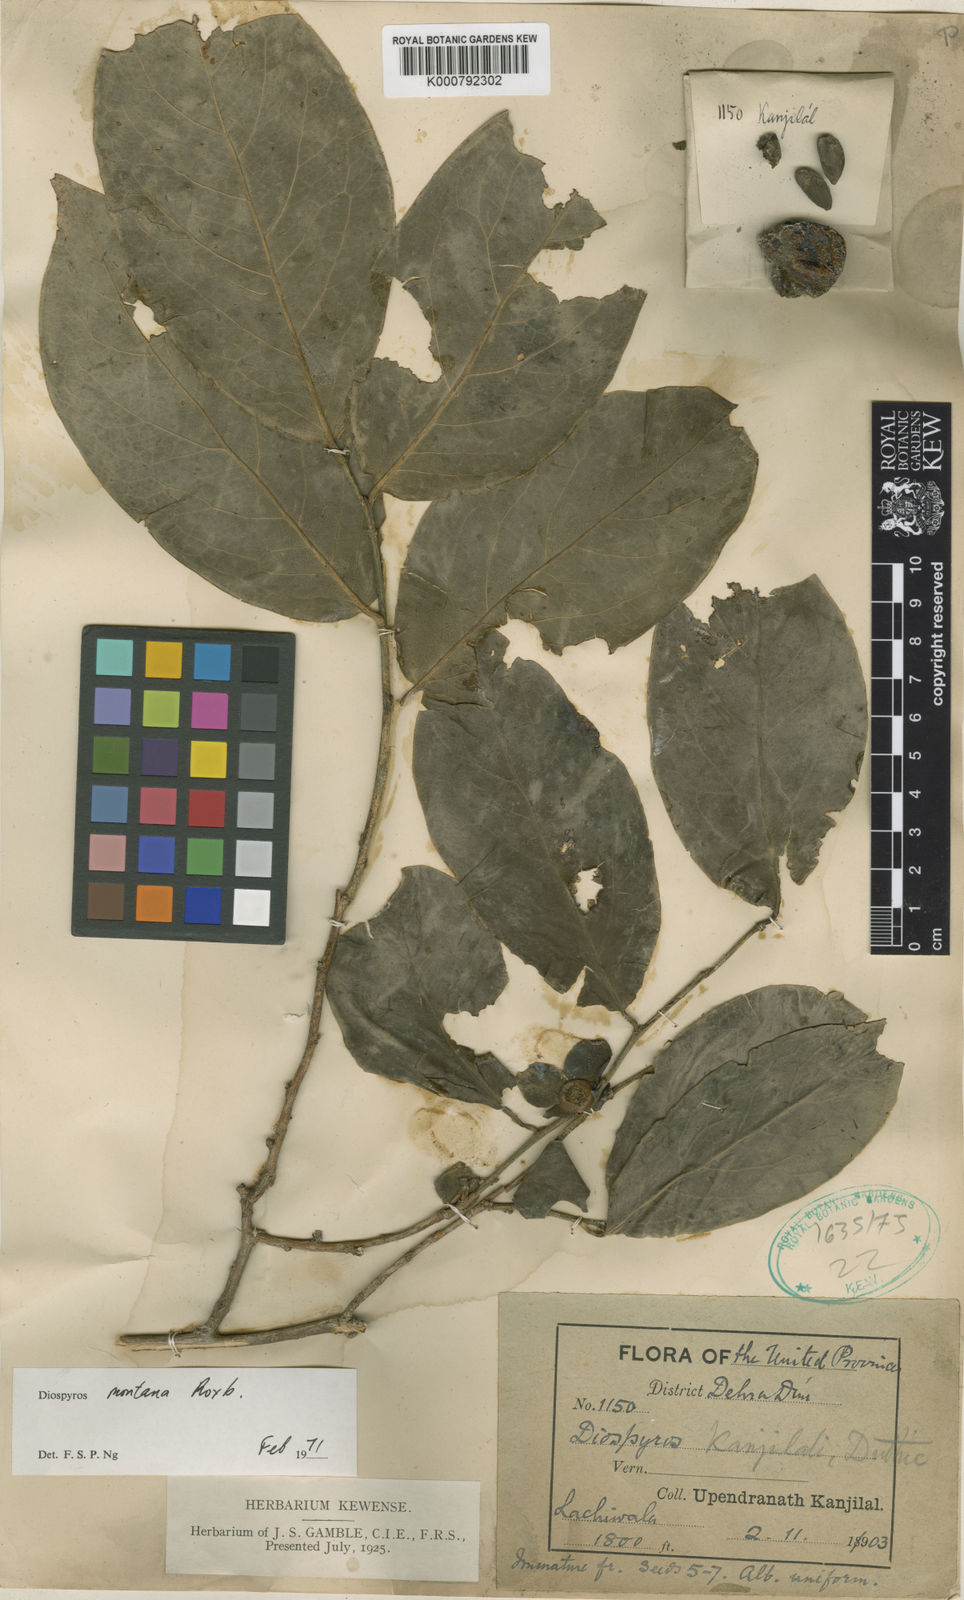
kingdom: Plantae
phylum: Tracheophyta
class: Magnoliopsida
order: Ericales
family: Ebenaceae
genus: Diospyros
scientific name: Diospyros montana
